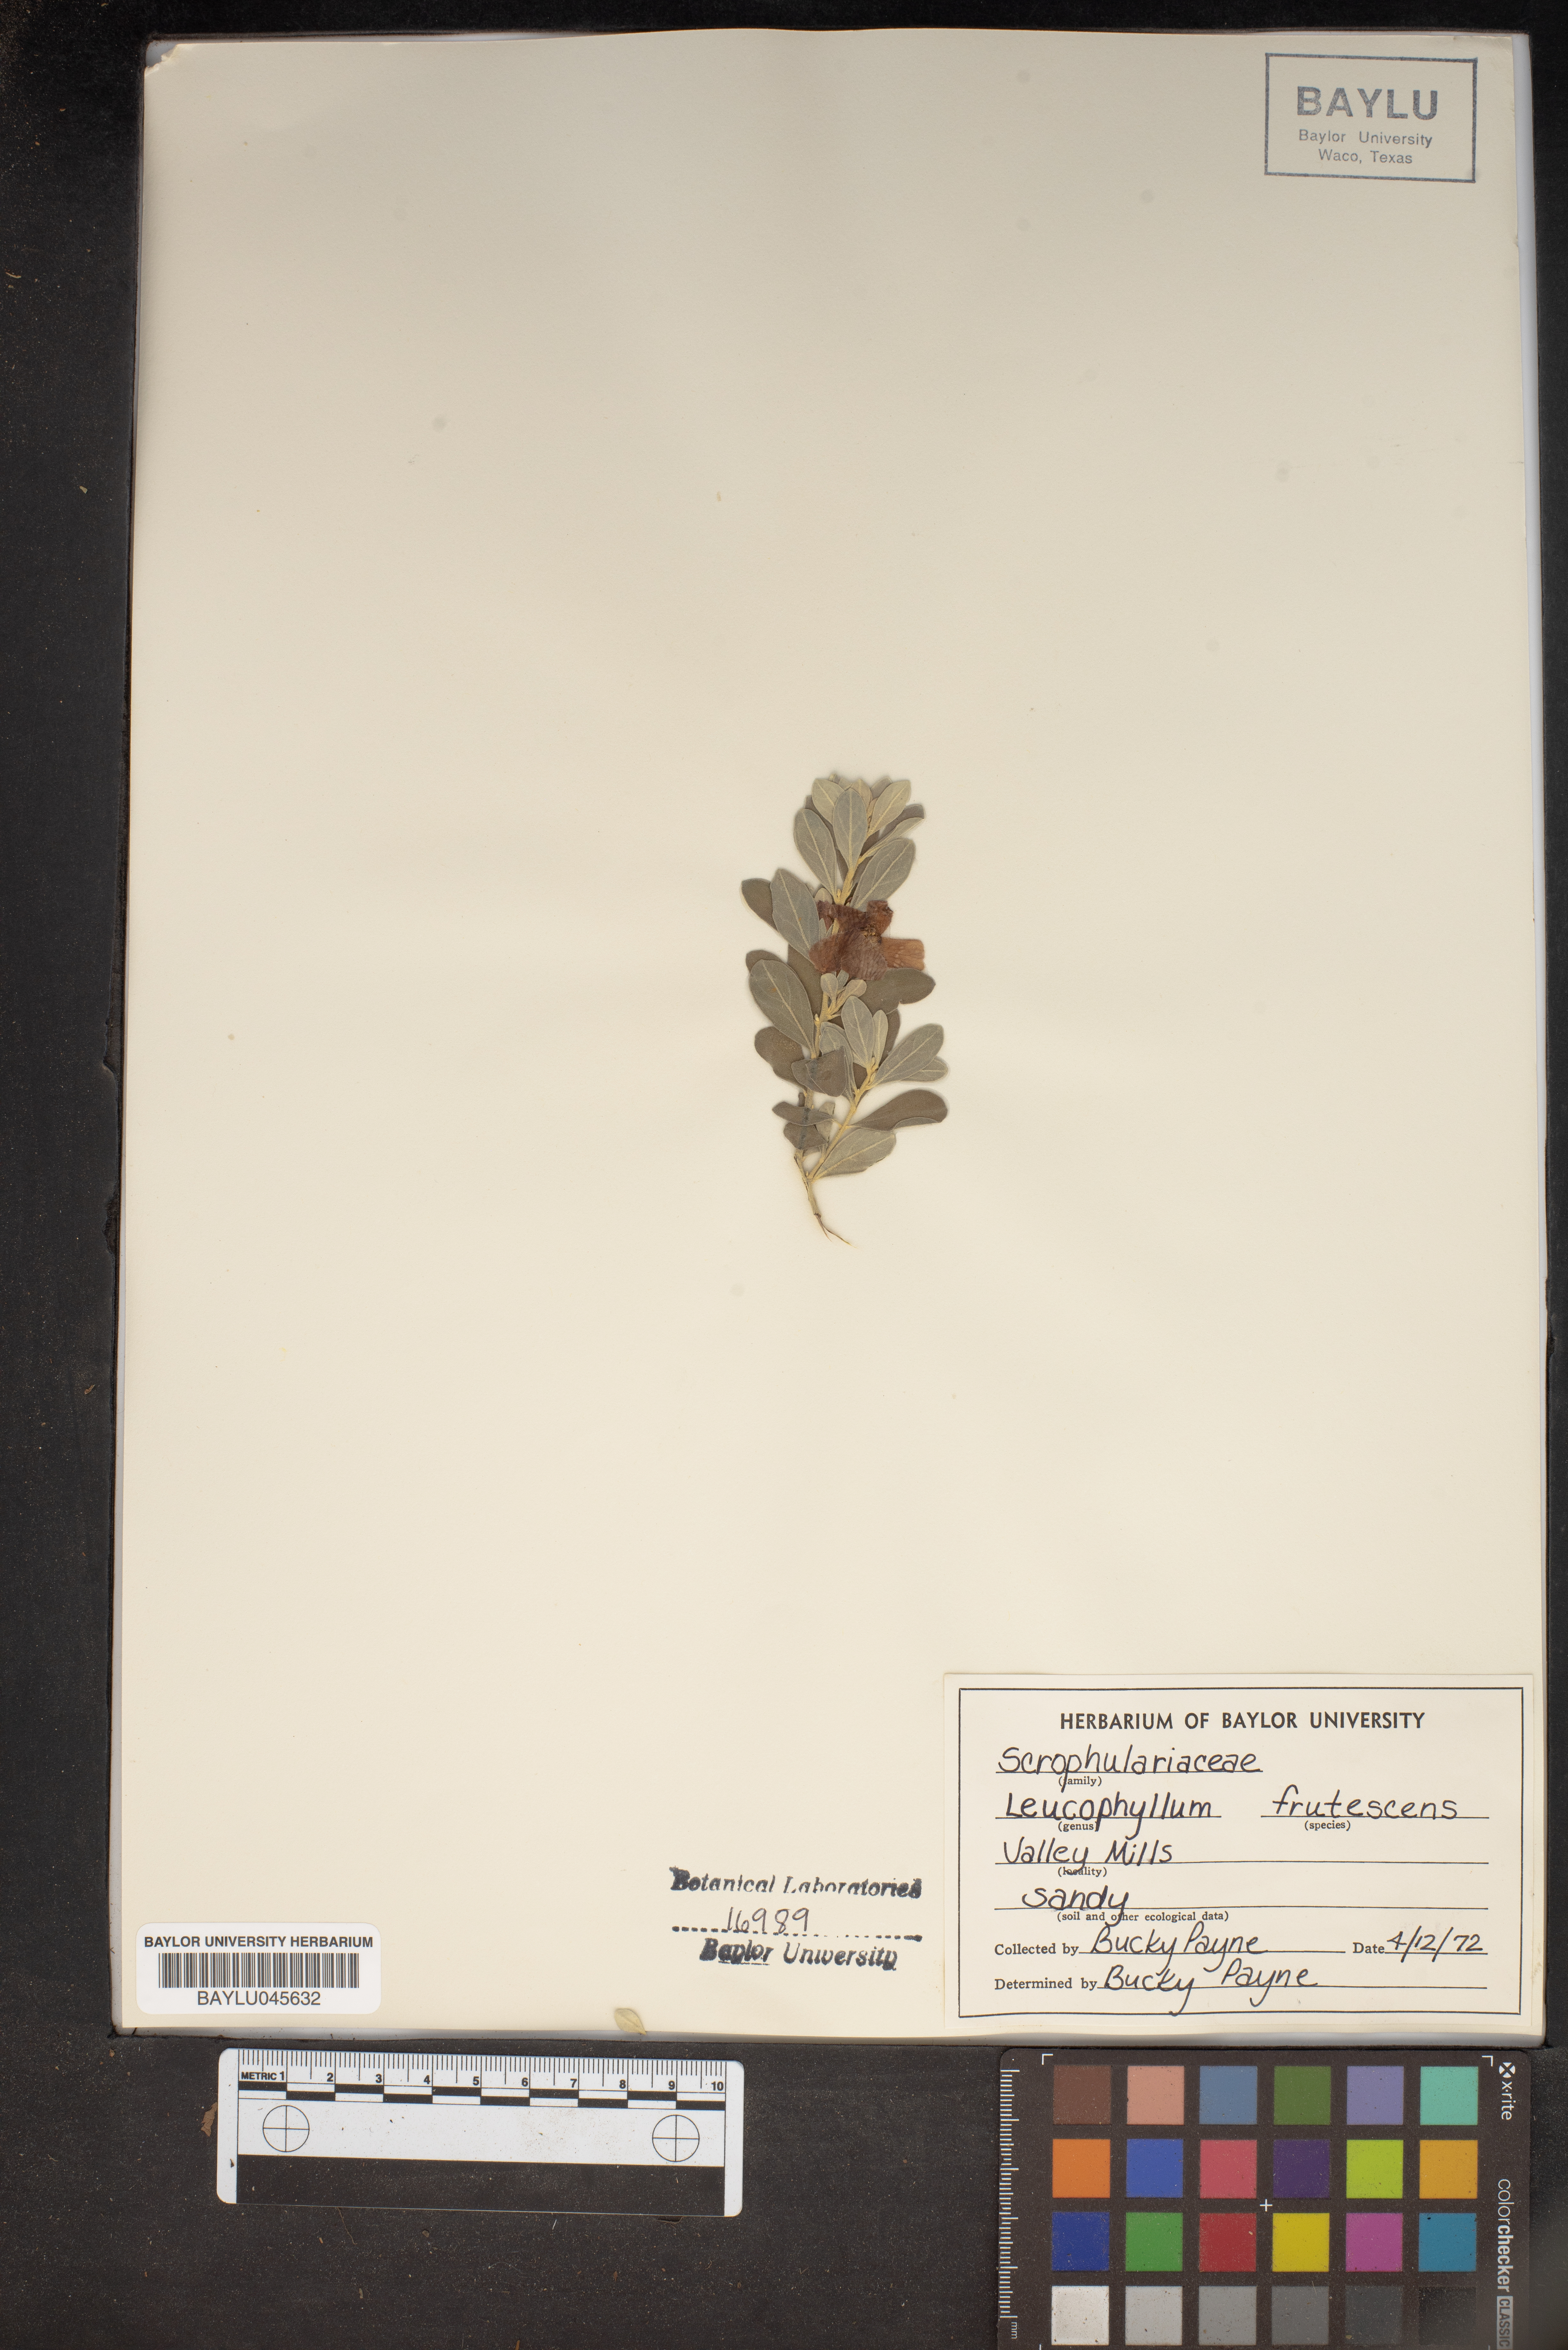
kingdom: Plantae
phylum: Tracheophyta
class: Magnoliopsida
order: Lamiales
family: Scrophulariaceae
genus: Leucophyllum
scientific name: Leucophyllum frutescens
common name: Texas silverleaf
